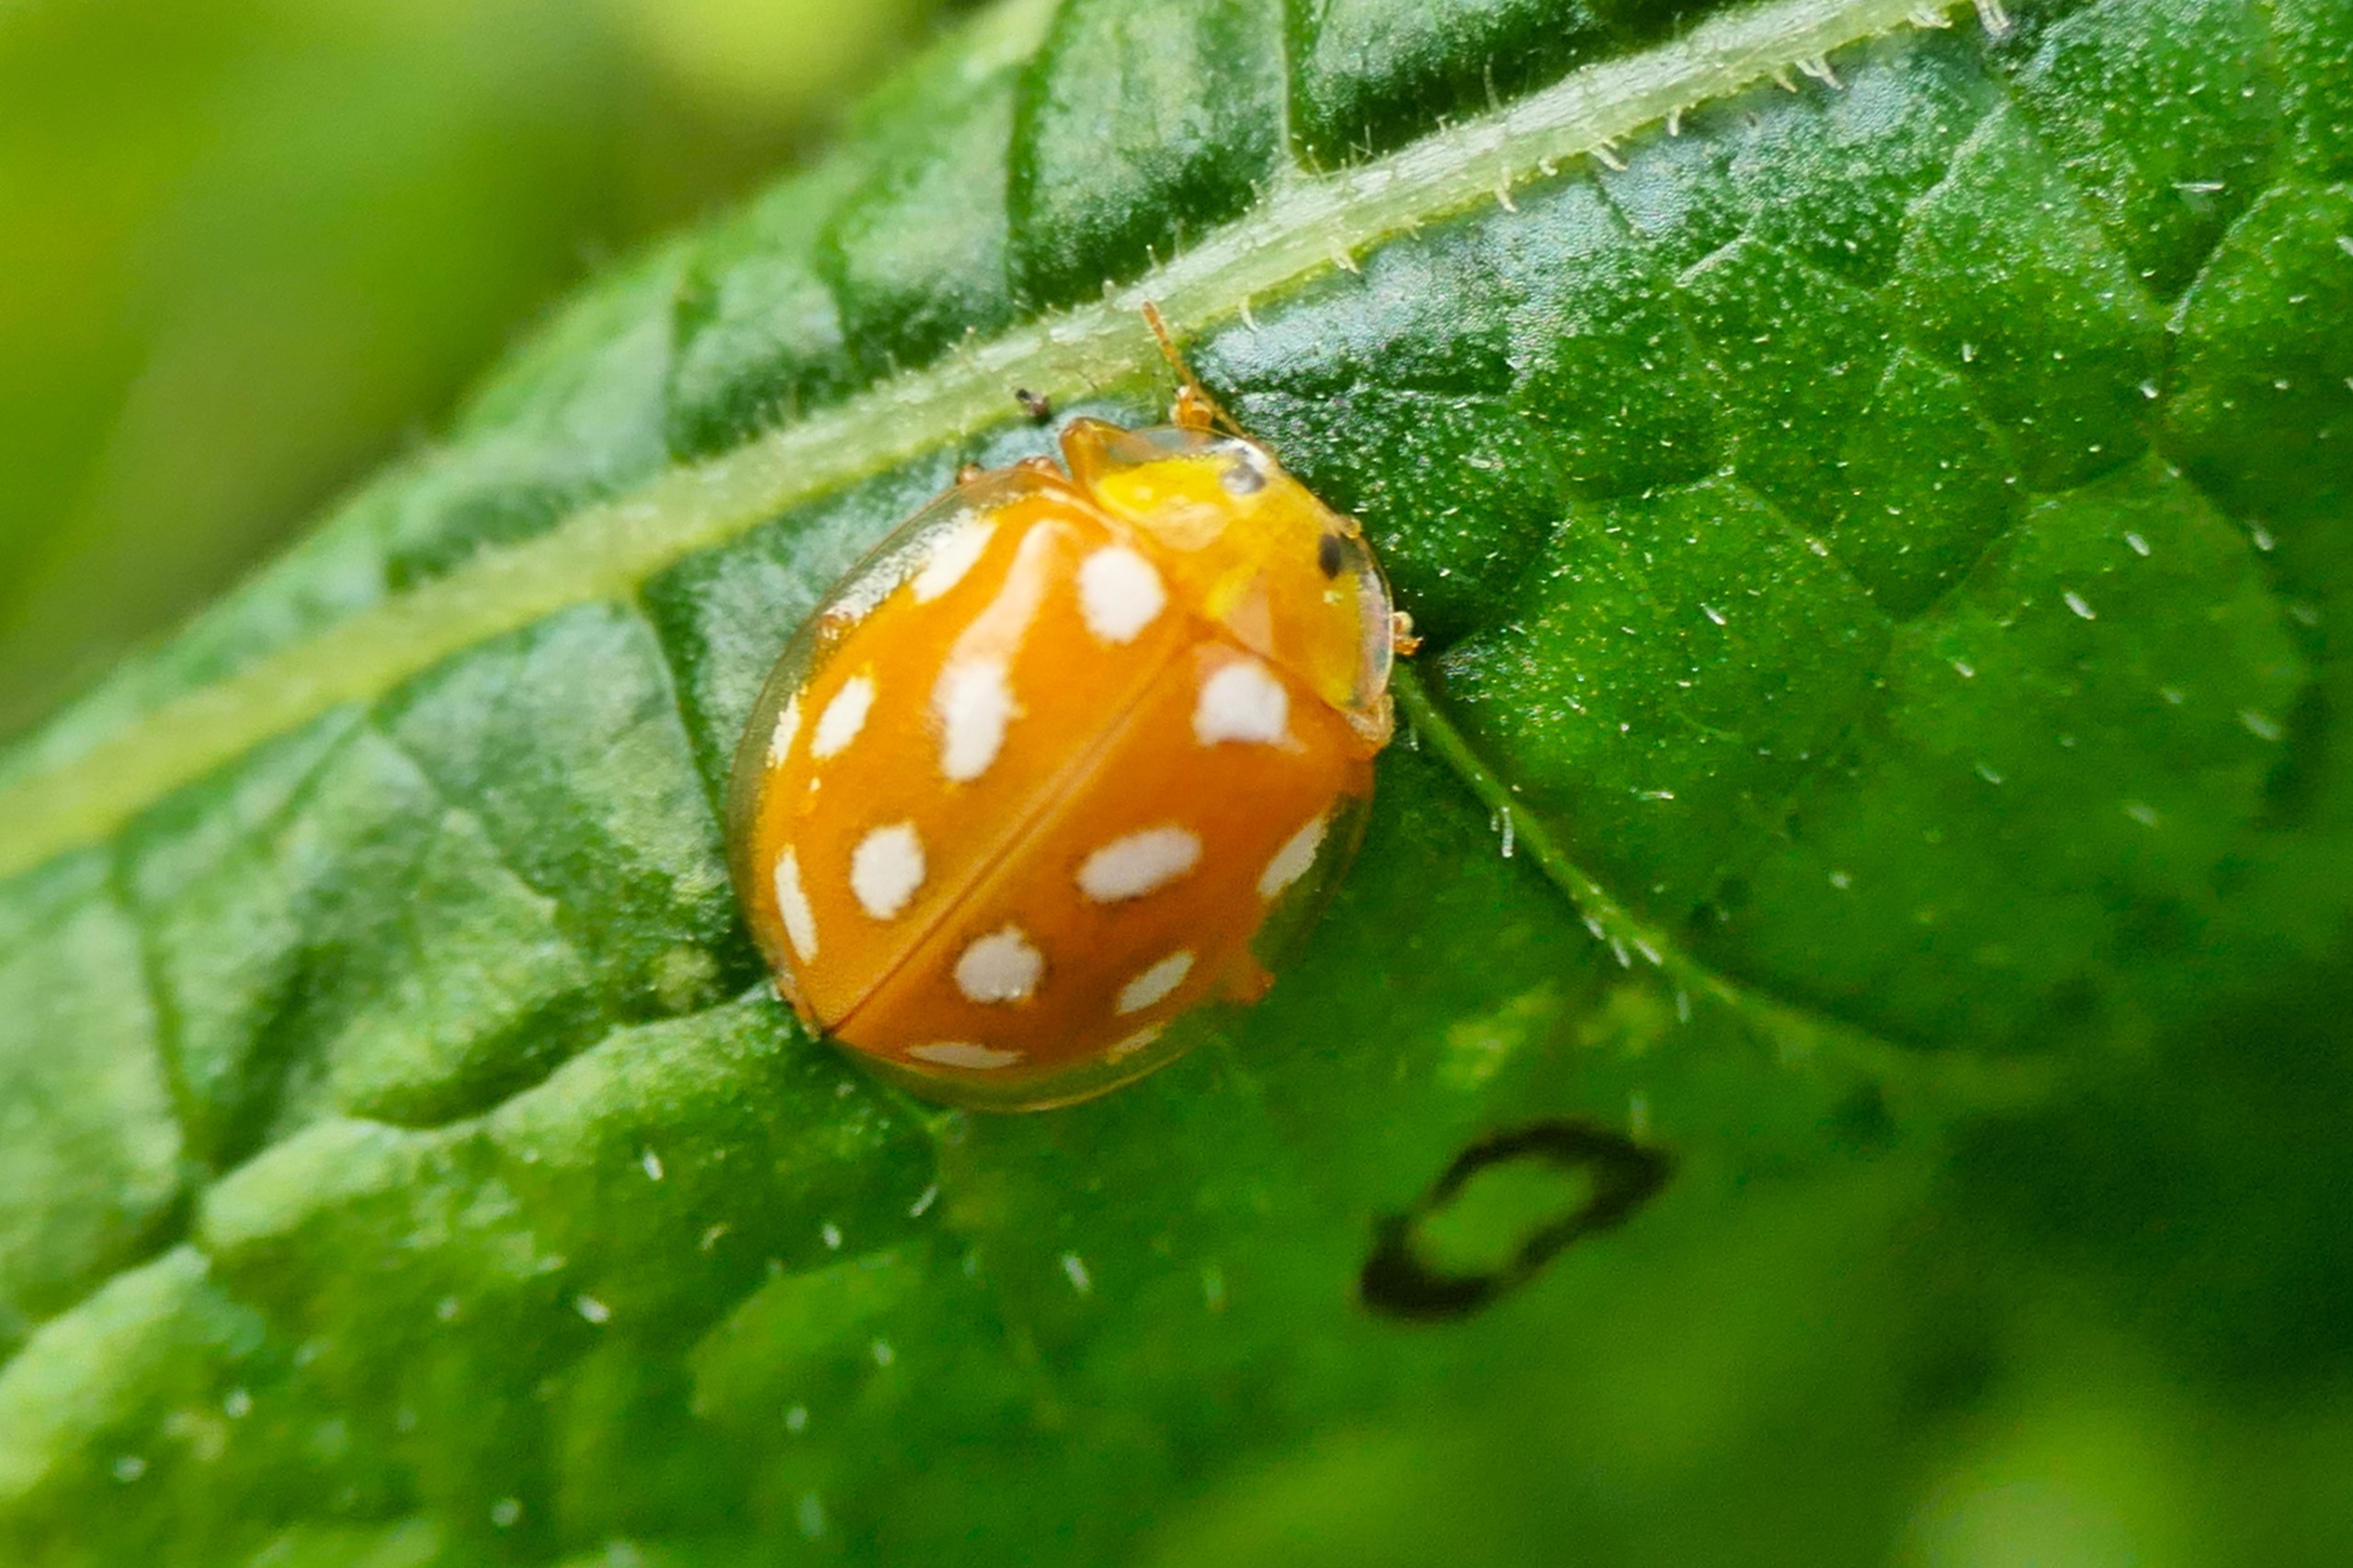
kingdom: Animalia
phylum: Arthropoda
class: Insecta
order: Coleoptera
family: Coccinellidae
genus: Halyzia
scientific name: Halyzia sedecimguttata
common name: Sekstenplettet mariehøne
